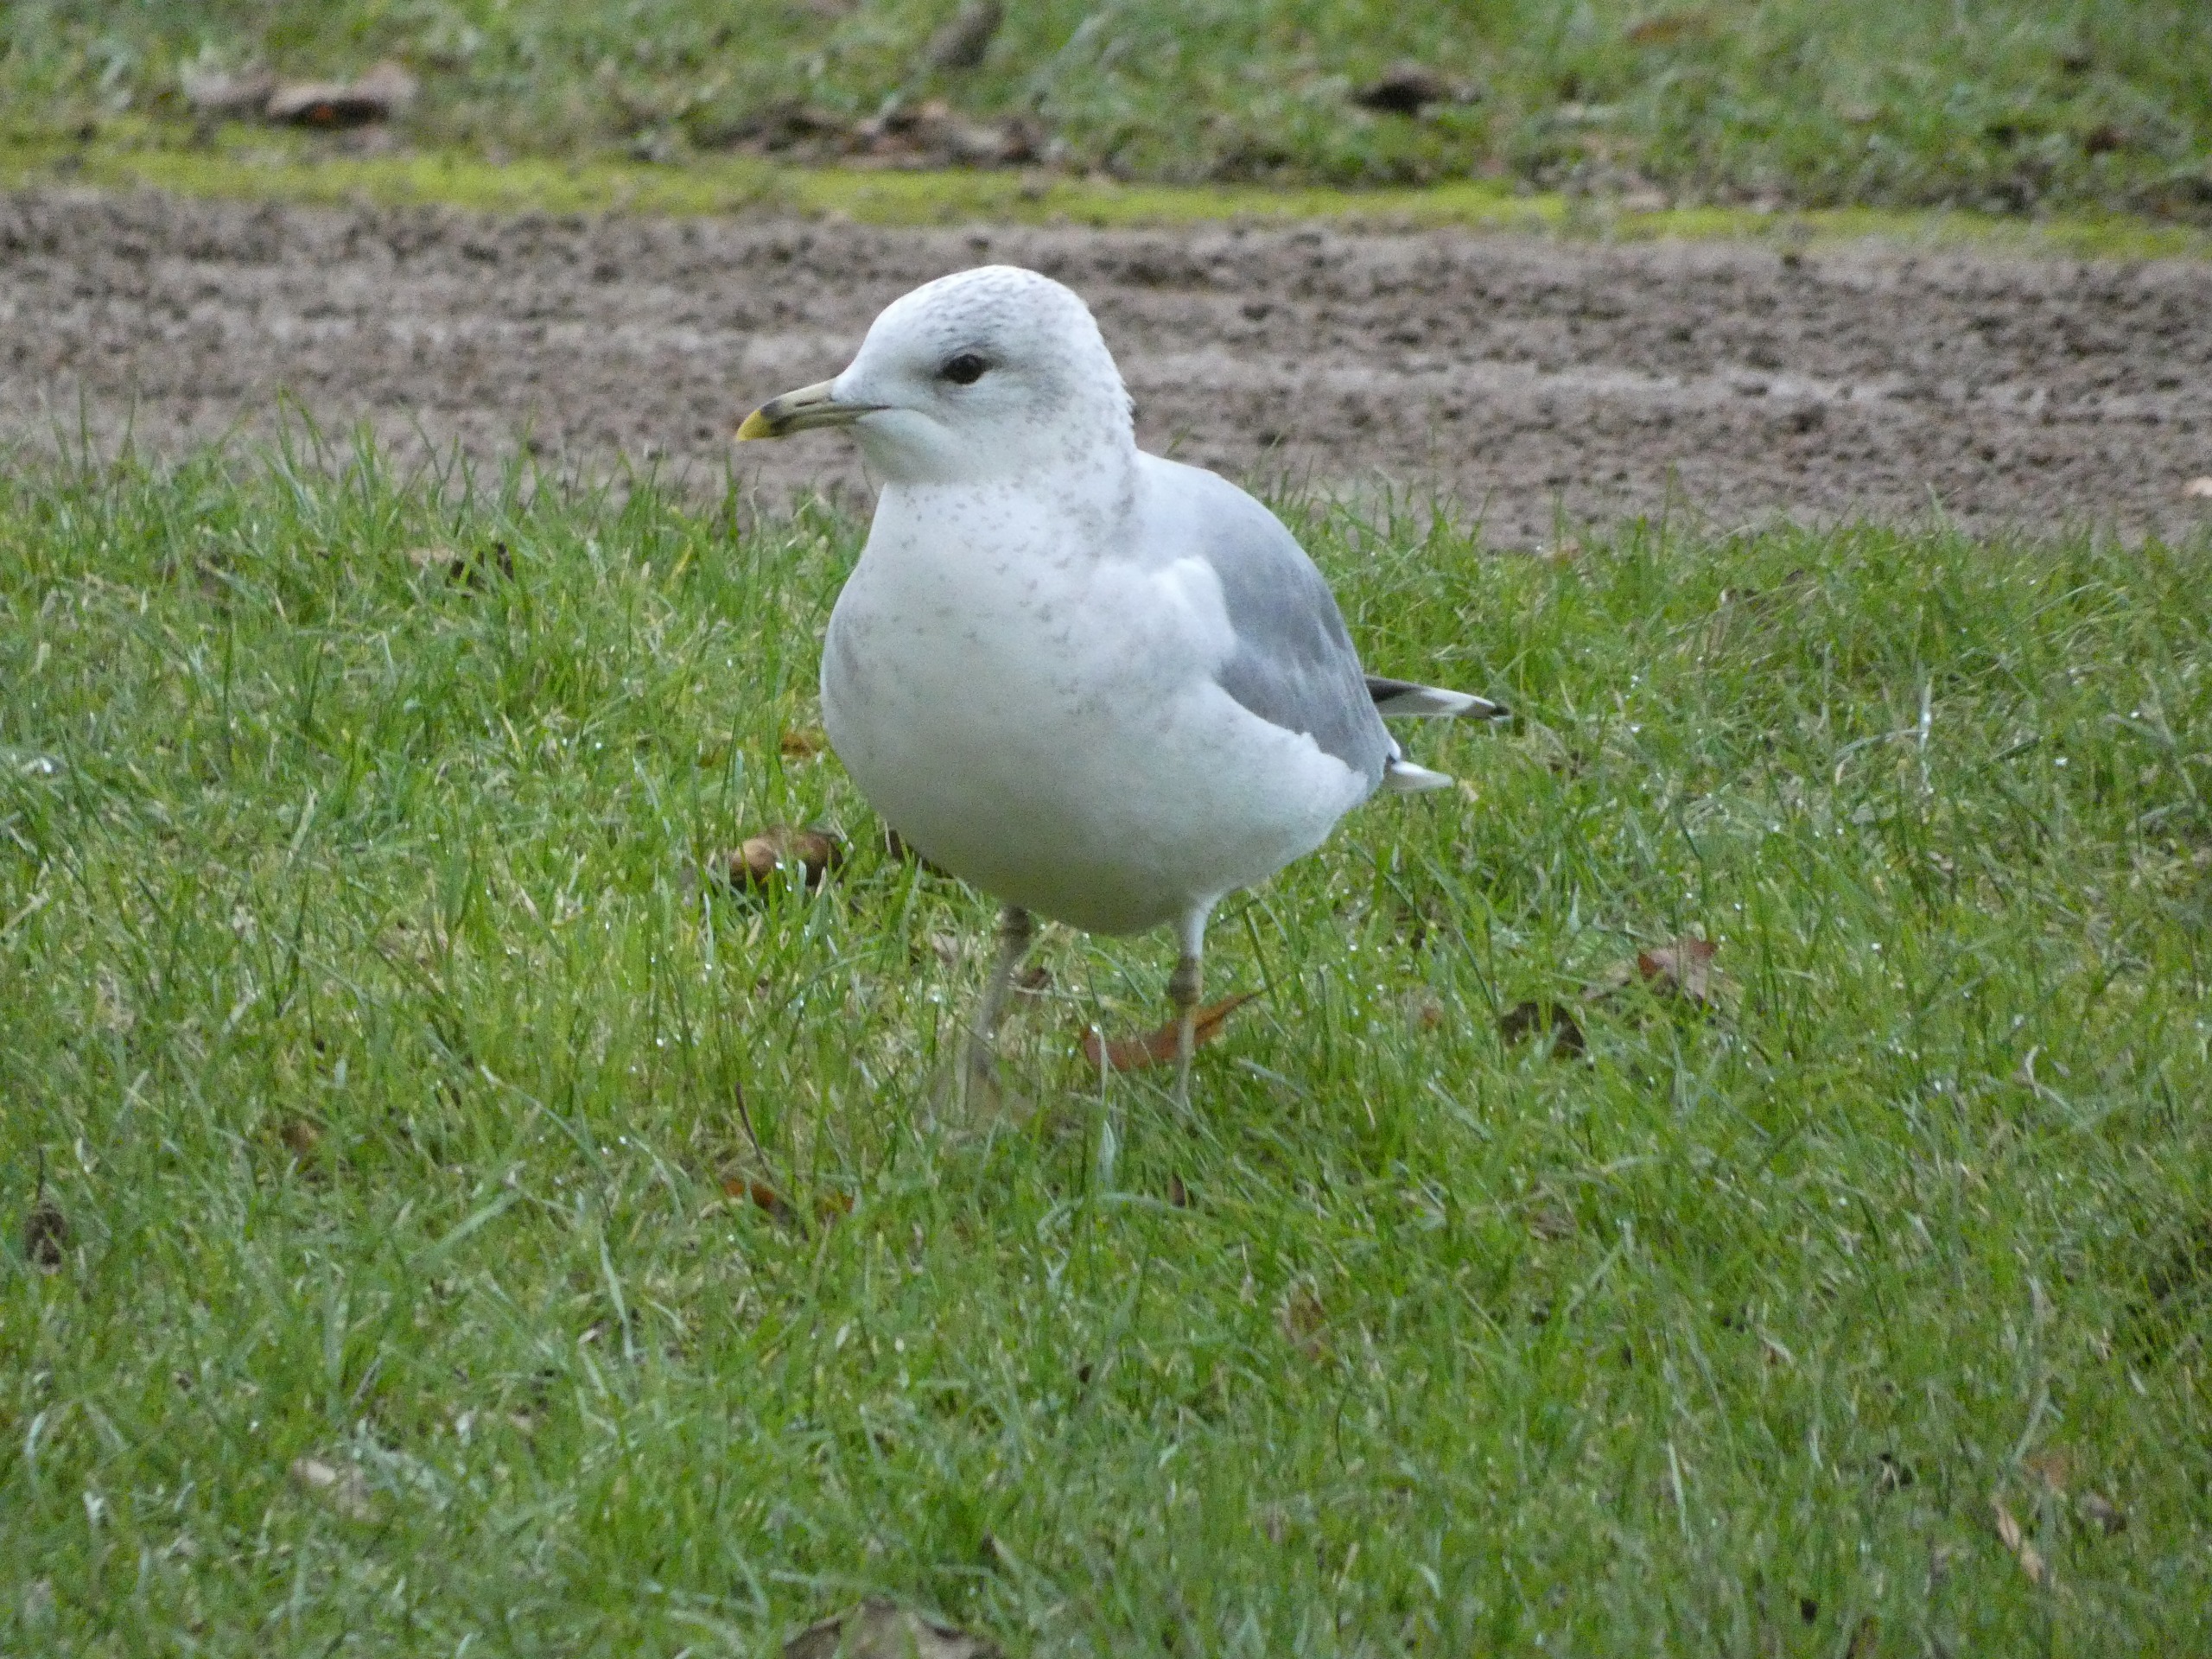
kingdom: Animalia
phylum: Chordata
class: Aves
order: Charadriiformes
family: Laridae
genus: Larus
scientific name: Larus canus
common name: Stormmåge
